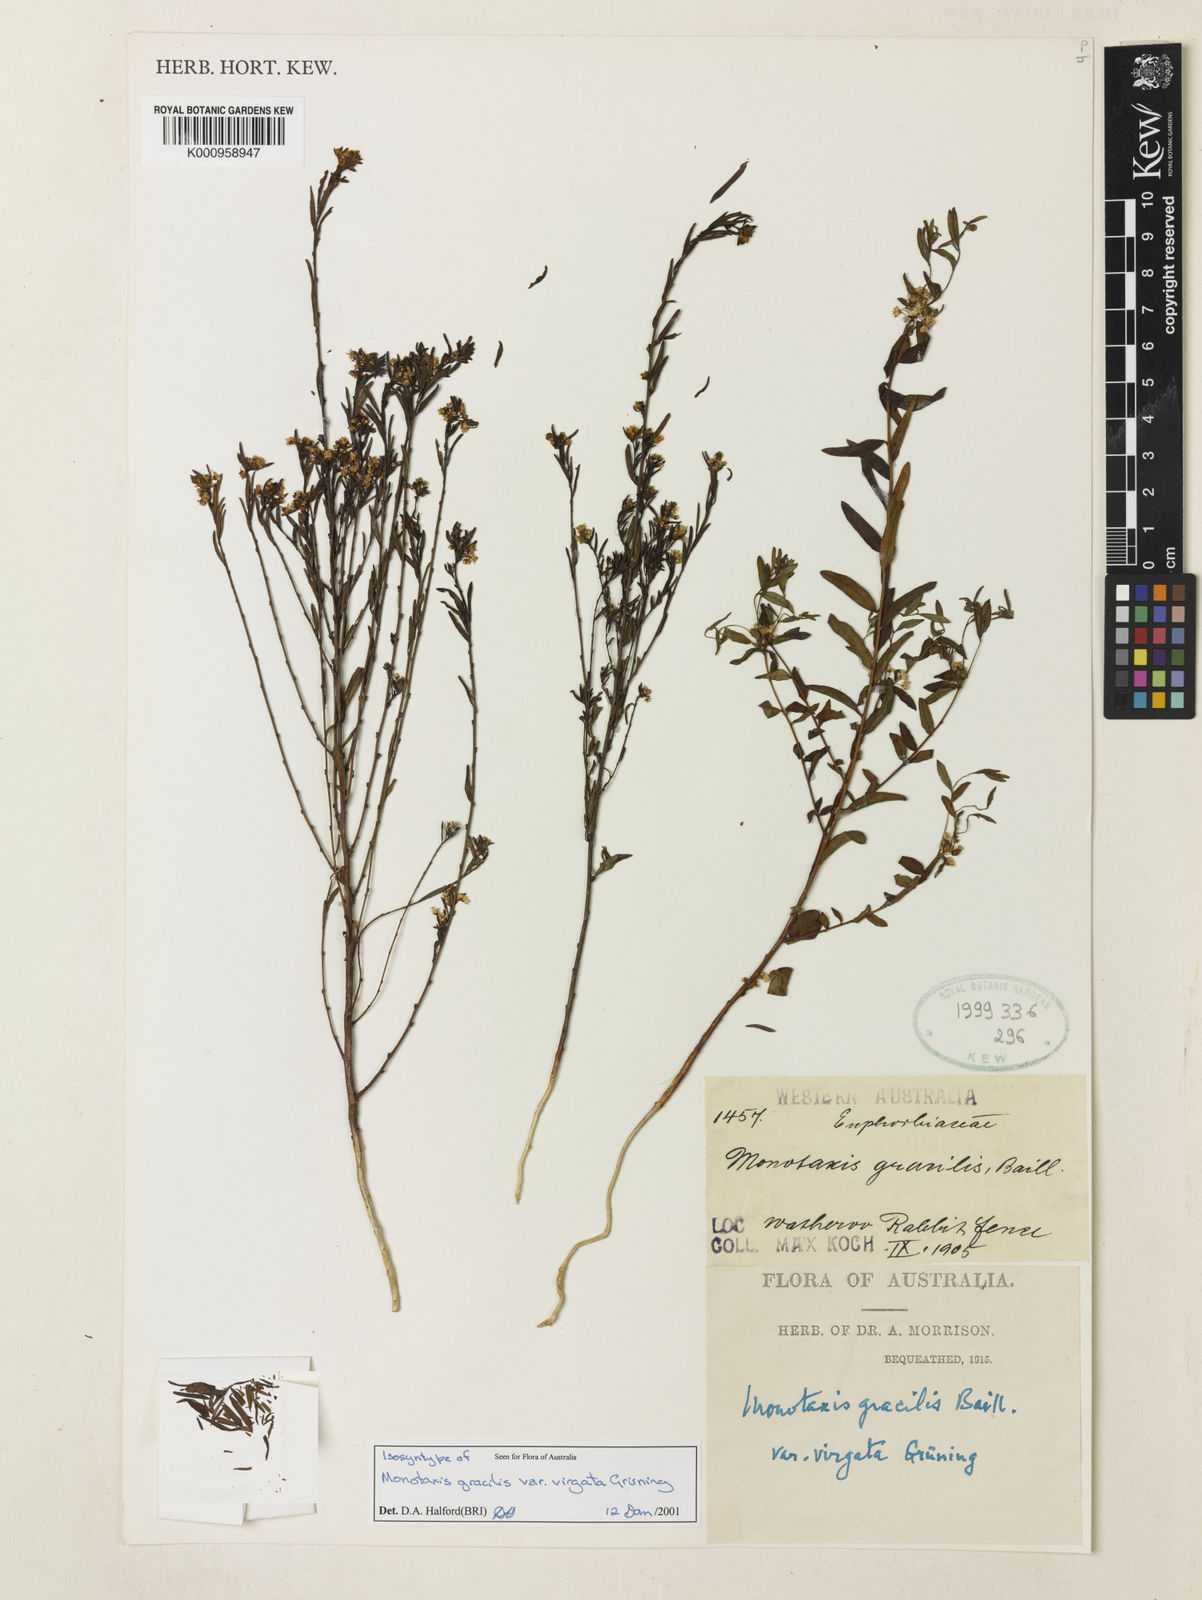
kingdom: Plantae
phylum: Tracheophyta
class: Magnoliopsida
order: Malpighiales
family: Euphorbiaceae
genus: Monotaxis
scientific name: Monotaxis
